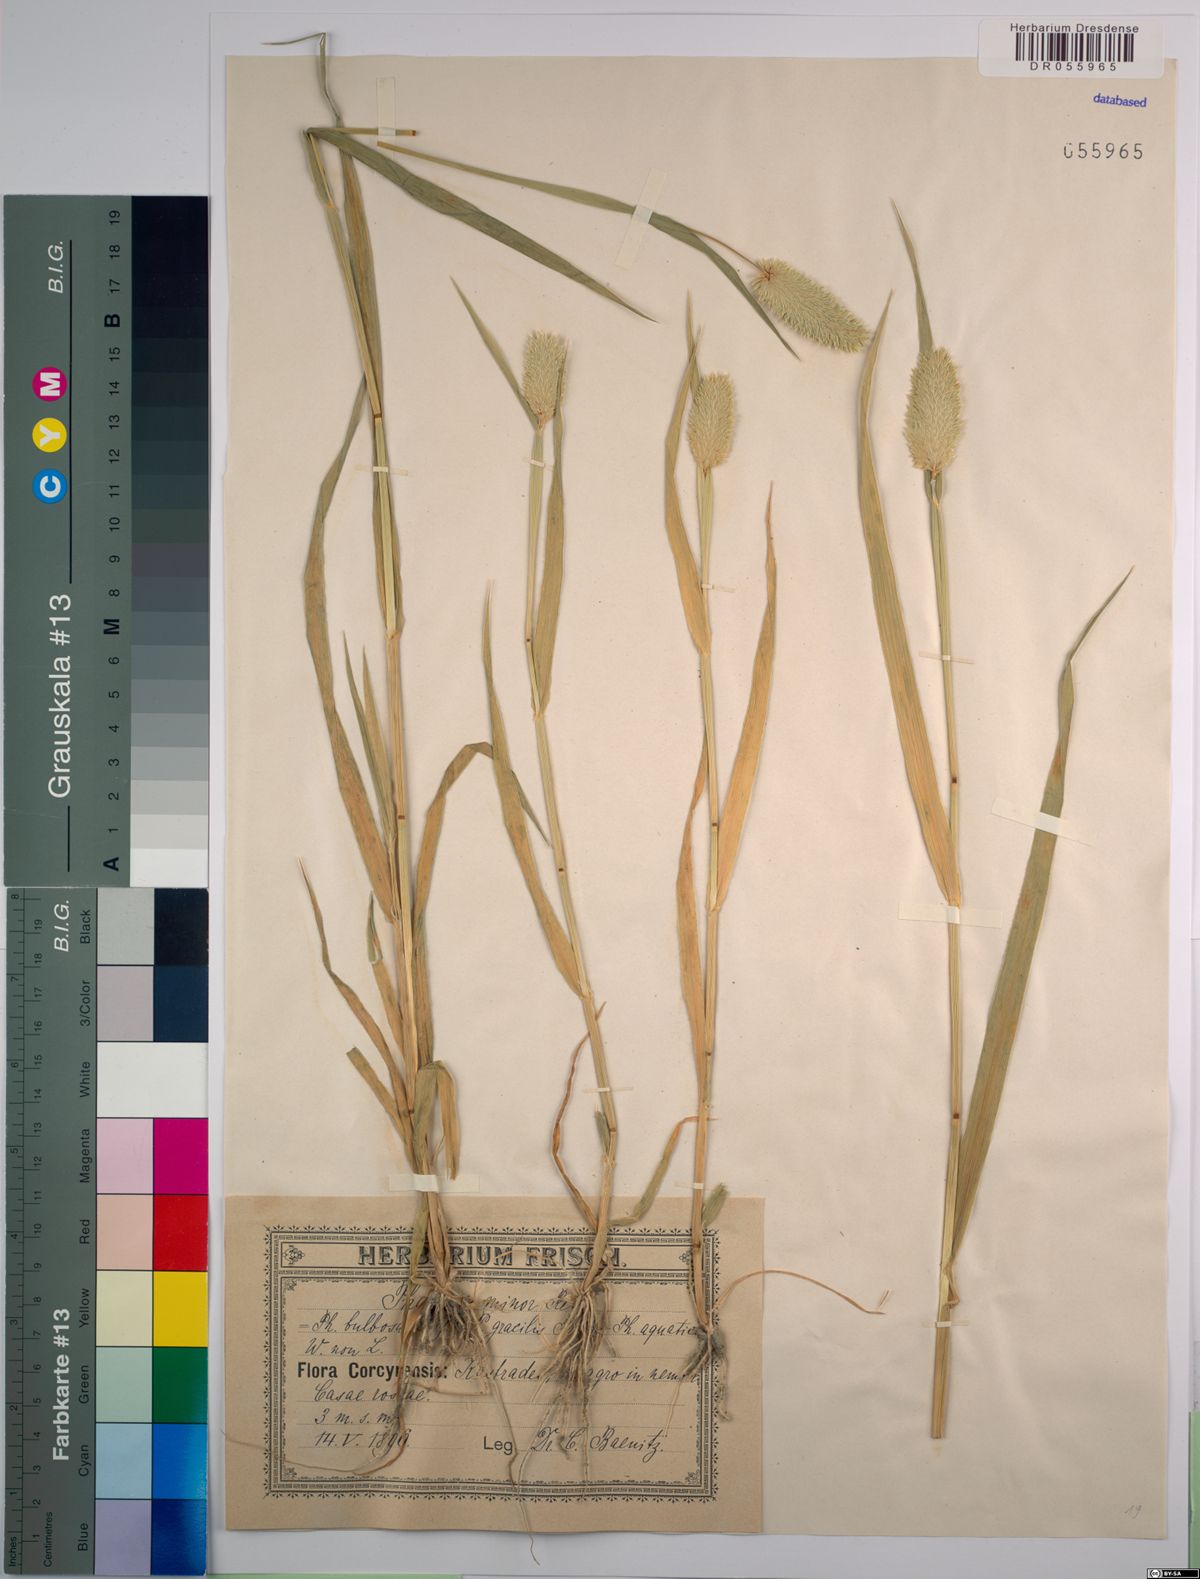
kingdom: Plantae
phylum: Tracheophyta
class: Liliopsida
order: Poales
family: Poaceae
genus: Phalaris
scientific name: Phalaris minor
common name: Littleseed canarygrass
